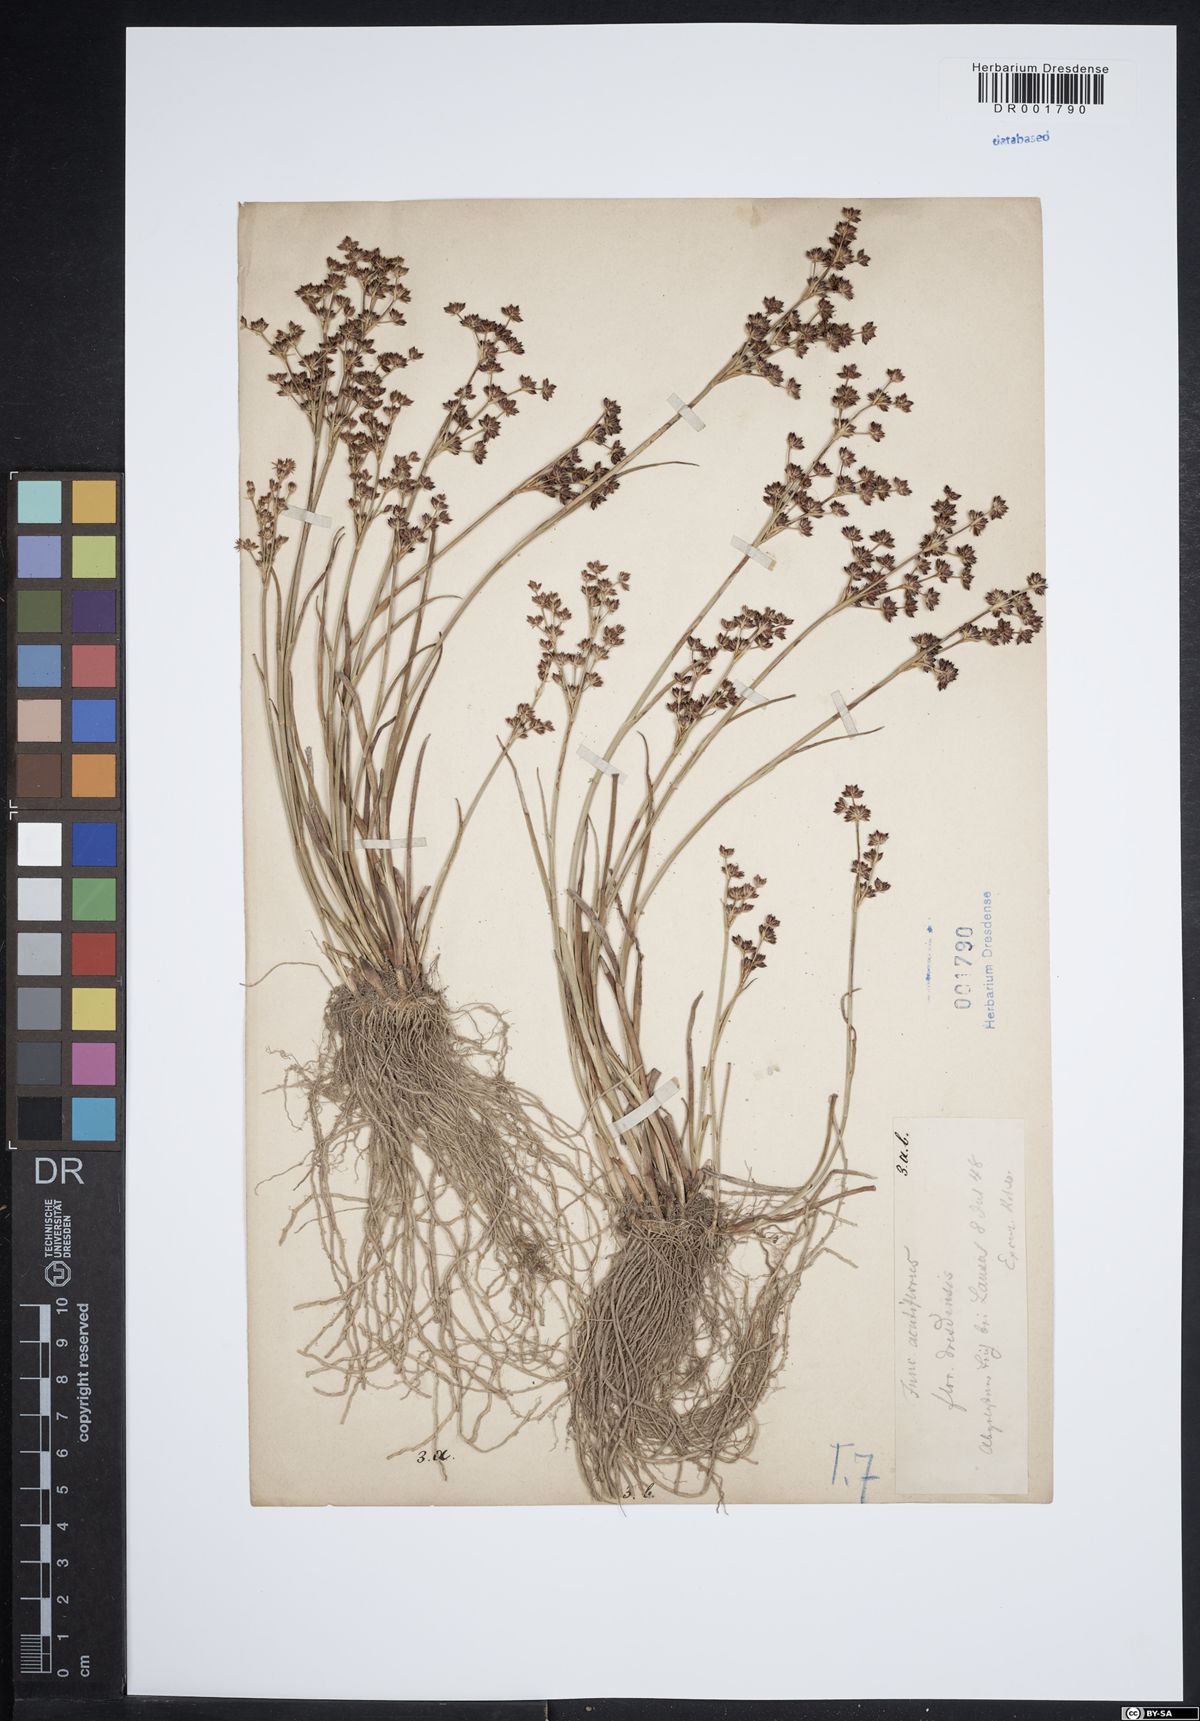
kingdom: Plantae
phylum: Tracheophyta
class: Liliopsida
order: Poales
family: Juncaceae
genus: Juncus
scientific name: Juncus acutiflorus
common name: Sharp-flowered rush
